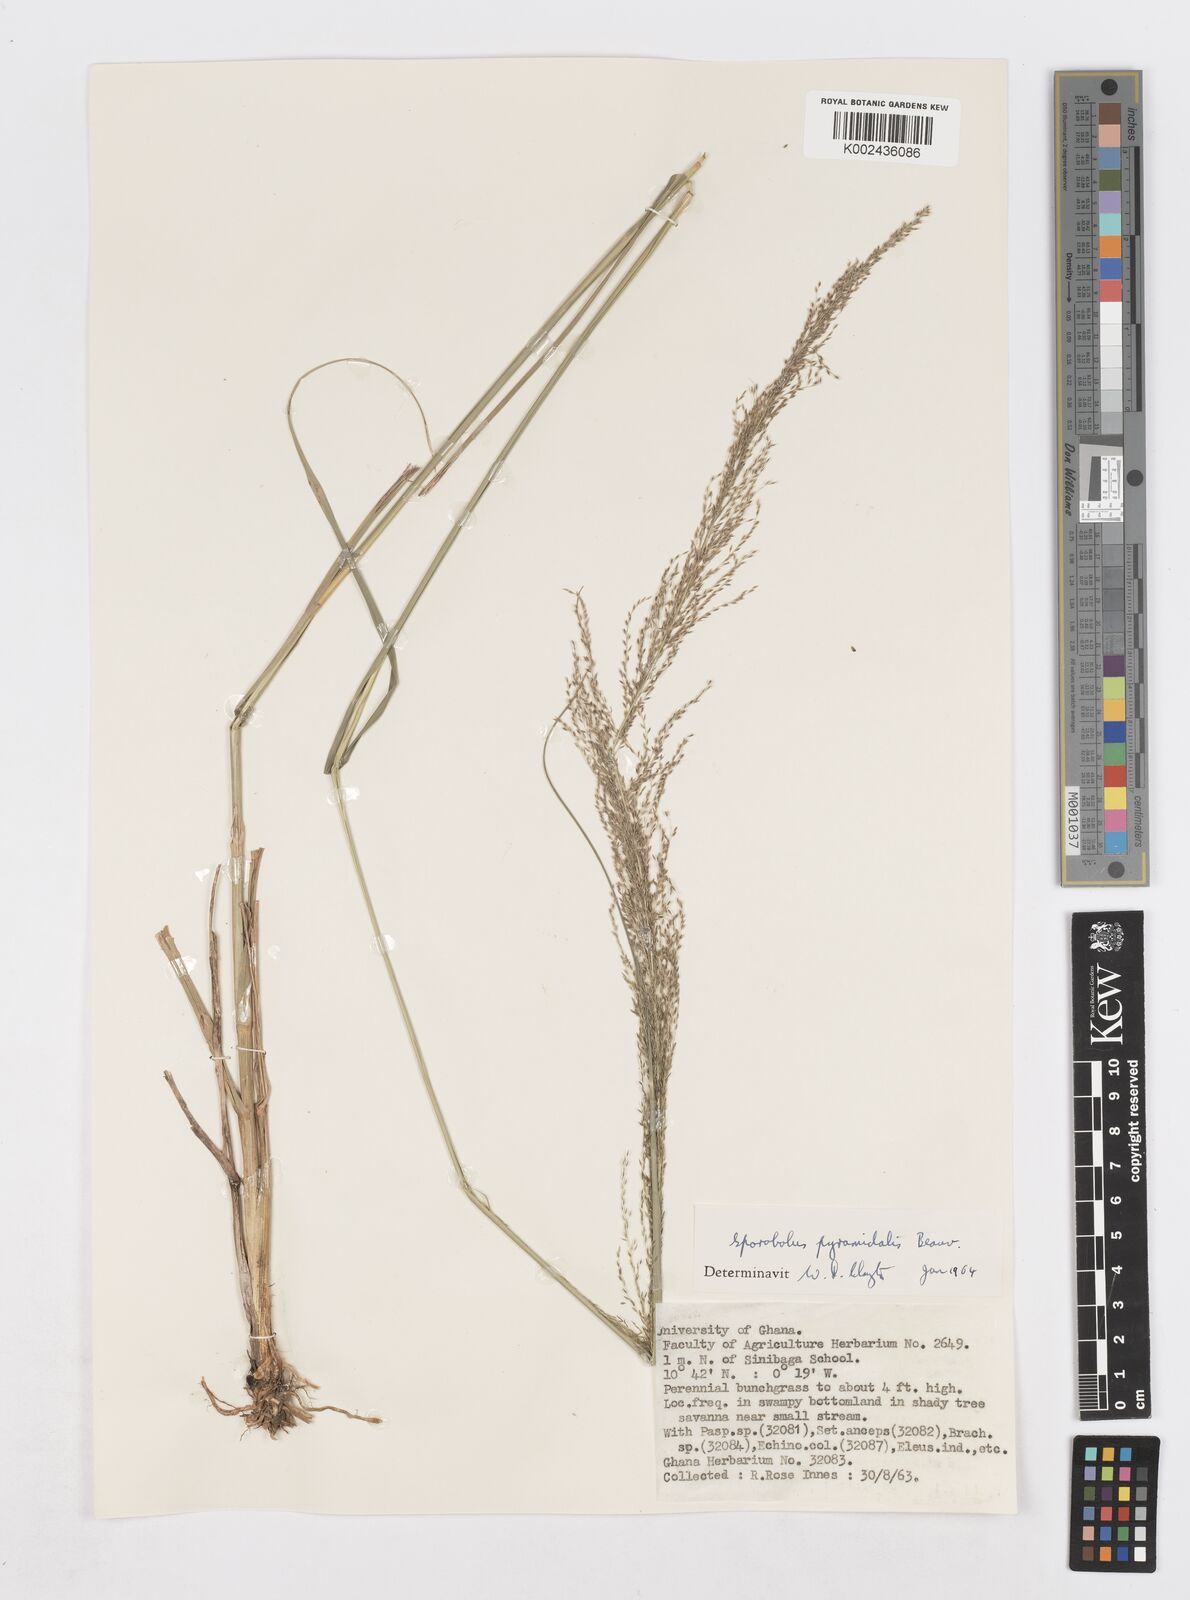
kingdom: Plantae
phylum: Tracheophyta
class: Liliopsida
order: Poales
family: Poaceae
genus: Sporobolus
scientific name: Sporobolus pyramidalis
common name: West indian dropseed
